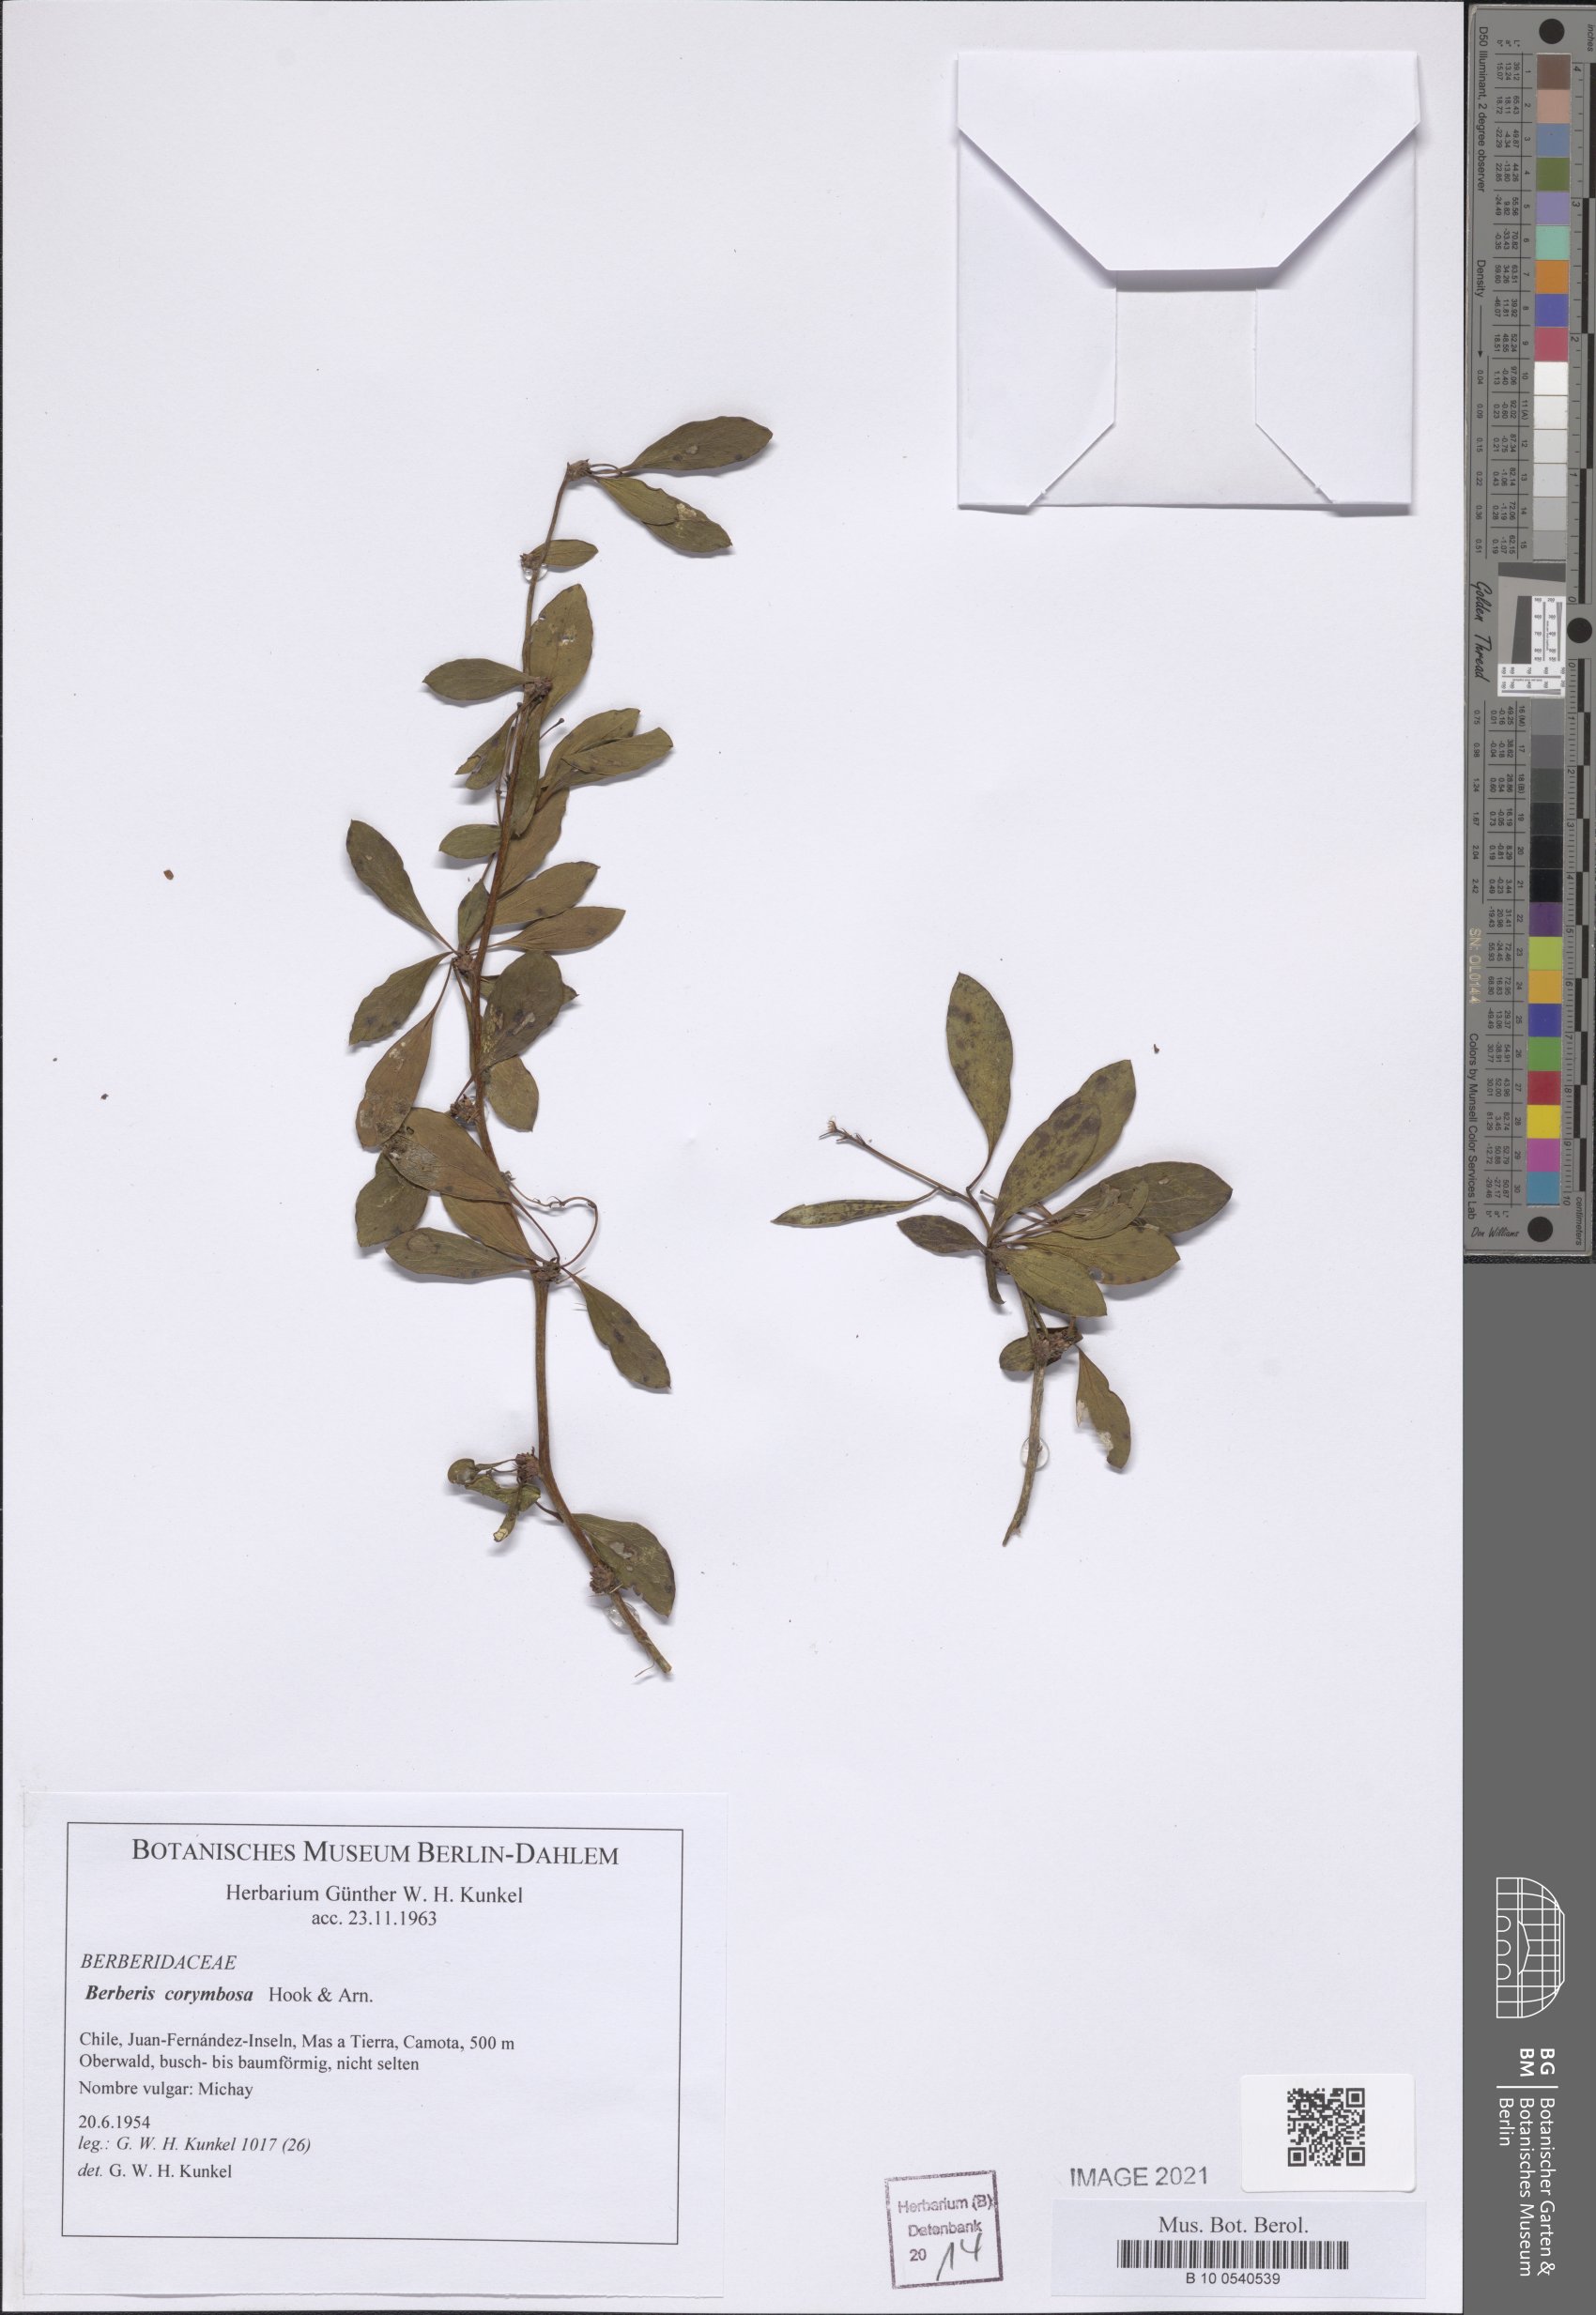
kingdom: Plantae
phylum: Tracheophyta
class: Magnoliopsida
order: Ranunculales
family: Berberidaceae
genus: Berberis
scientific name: Berberis corymbosa
